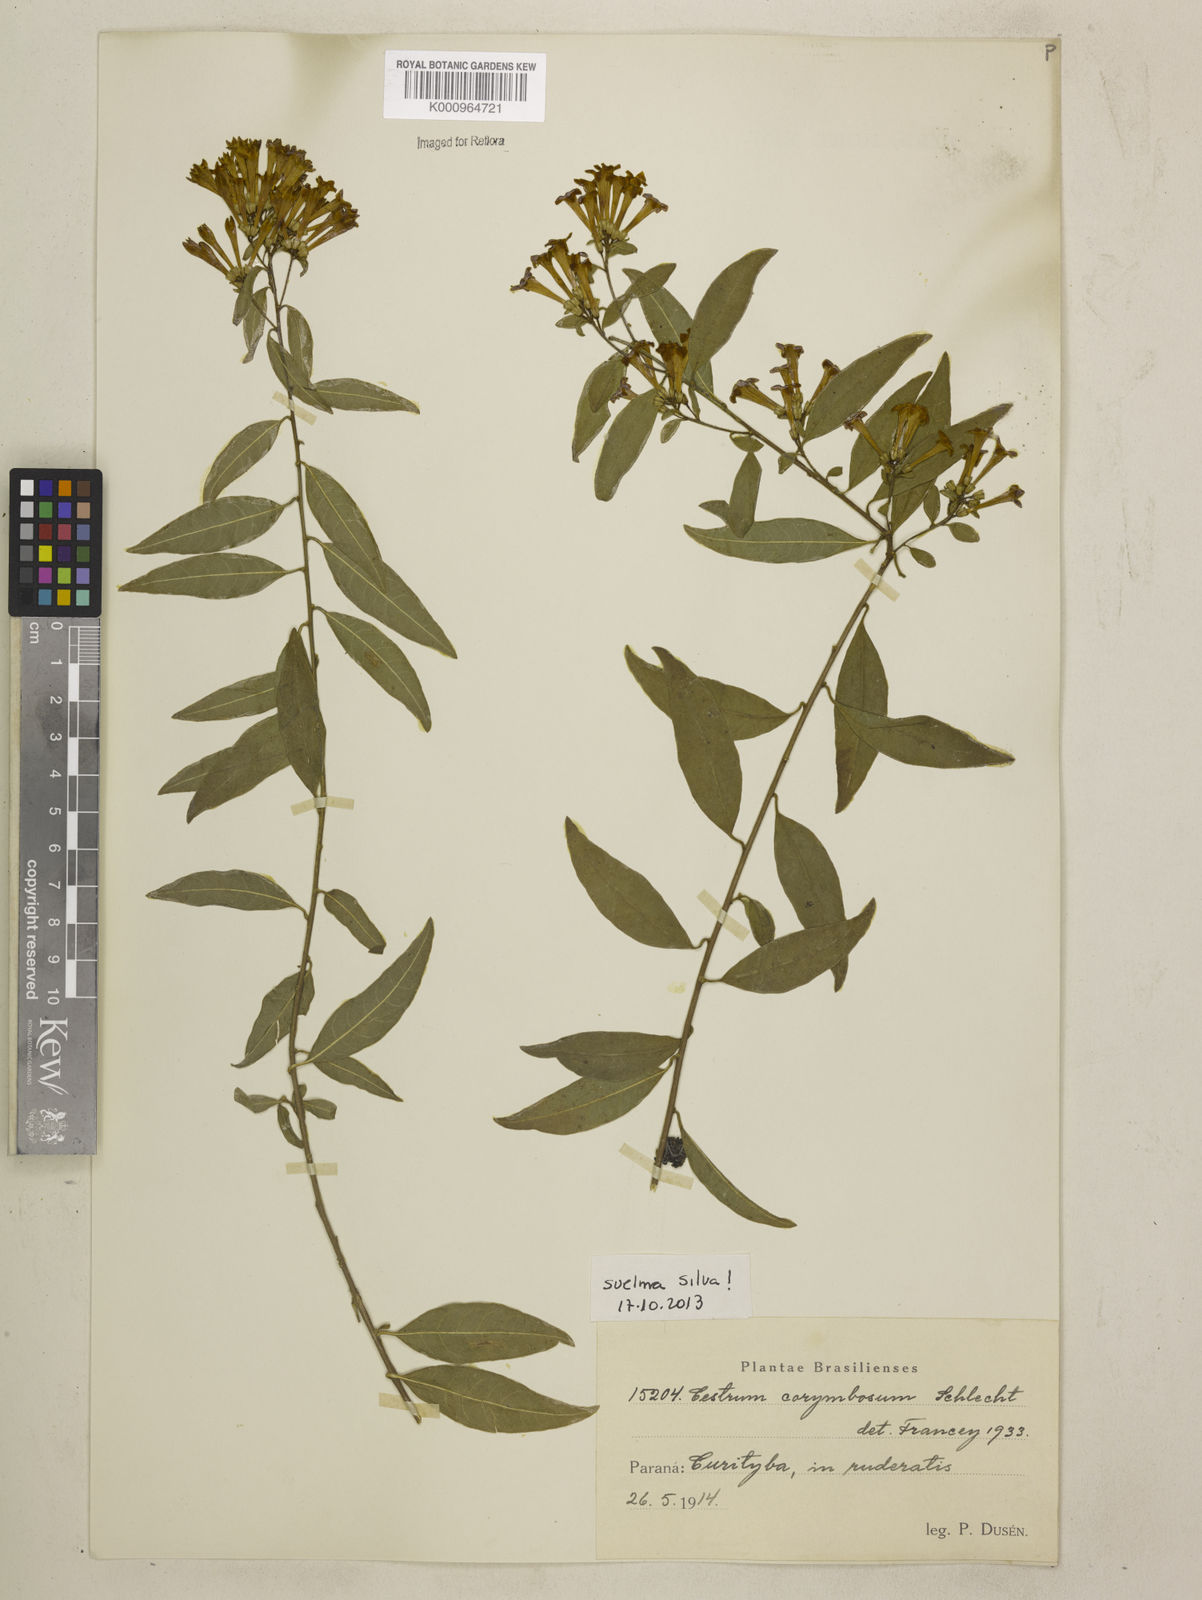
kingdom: Plantae
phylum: Tracheophyta
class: Magnoliopsida
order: Solanales
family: Solanaceae
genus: Cestrum
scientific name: Cestrum corymbosum
